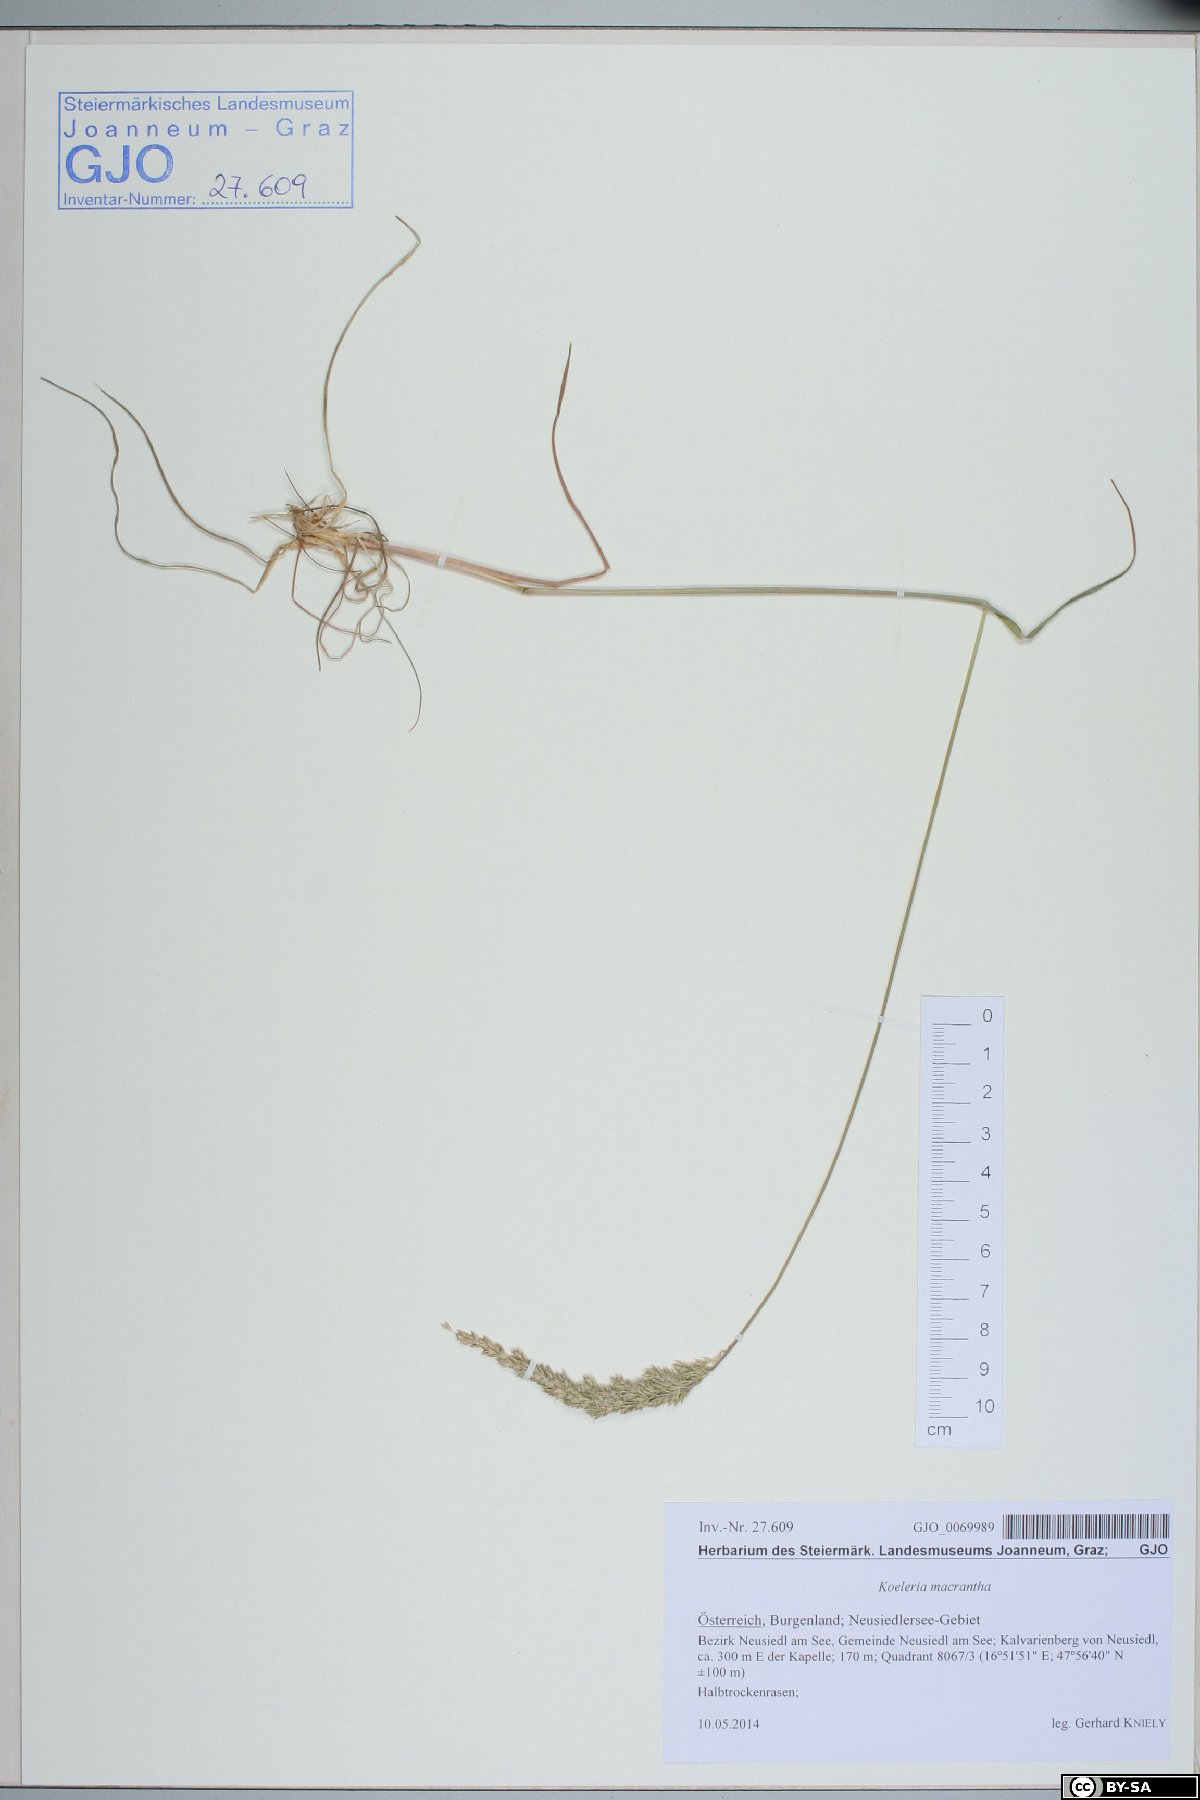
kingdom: Plantae
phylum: Tracheophyta
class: Liliopsida
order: Poales
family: Poaceae
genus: Koeleria
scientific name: Koeleria macrantha
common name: Crested hair-grass
